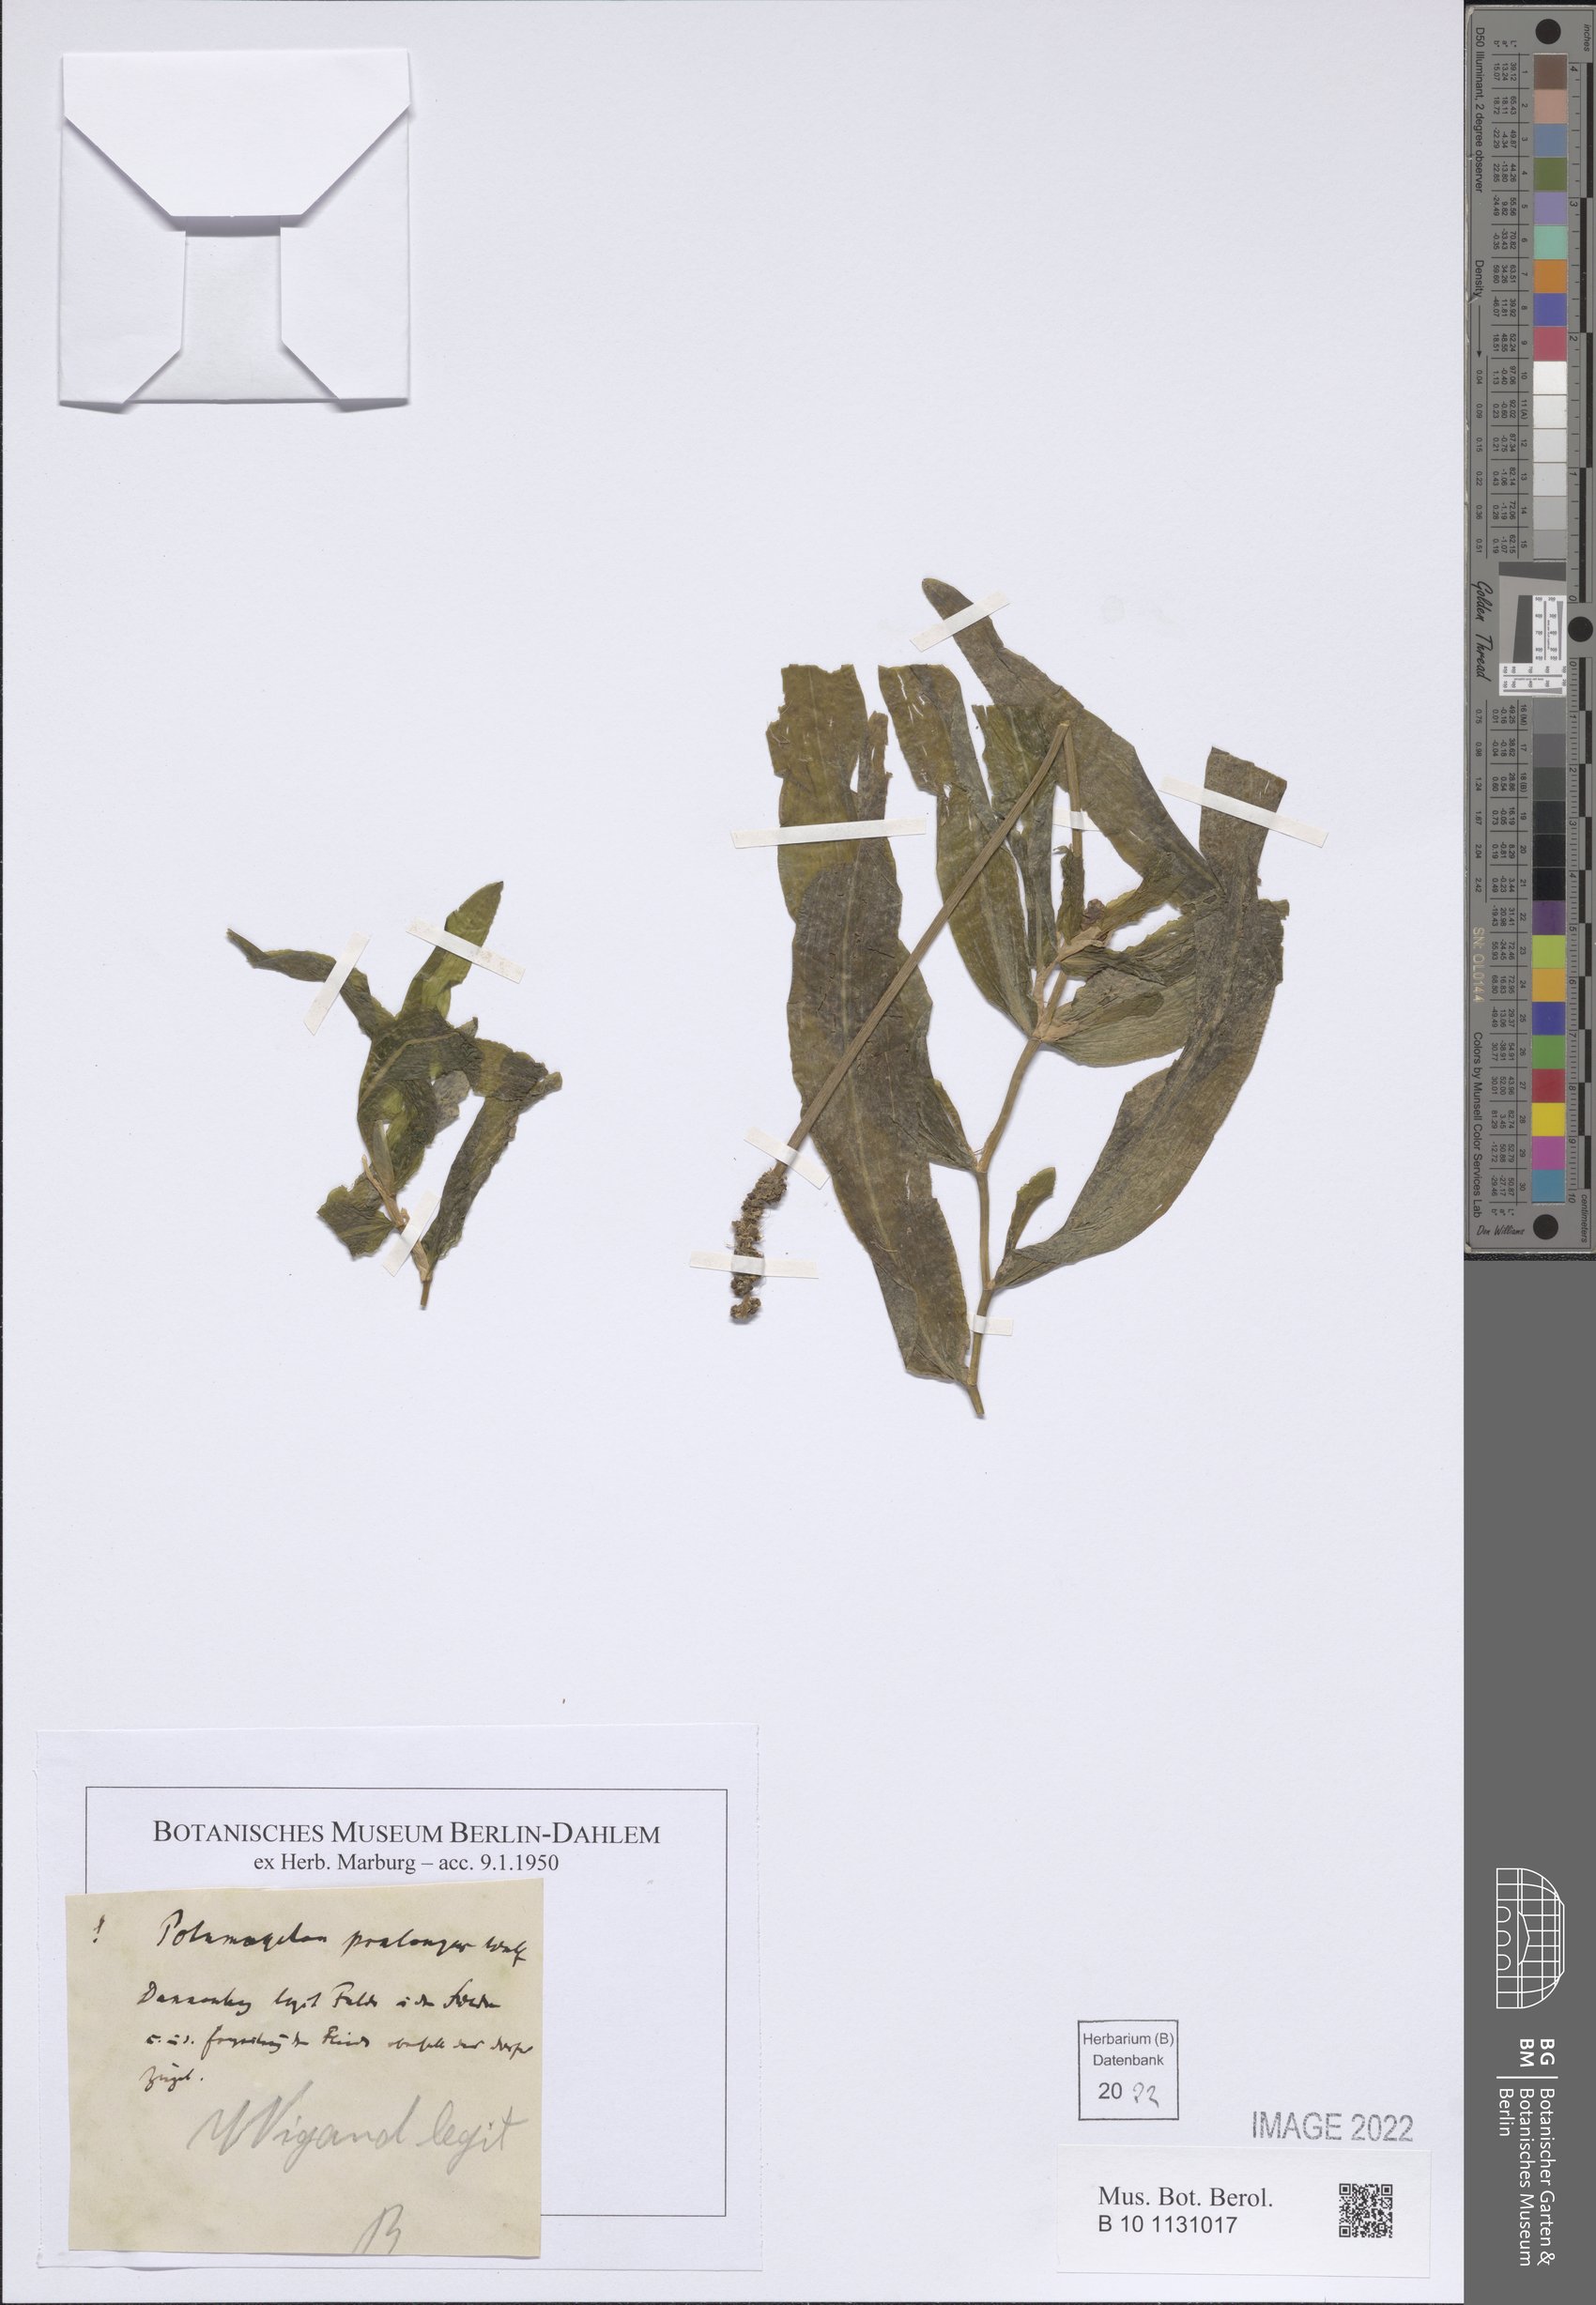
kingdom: Plantae
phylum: Tracheophyta
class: Liliopsida
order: Alismatales
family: Potamogetonaceae
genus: Potamogeton
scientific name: Potamogeton praelongus
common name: Long-stalked pondweed
